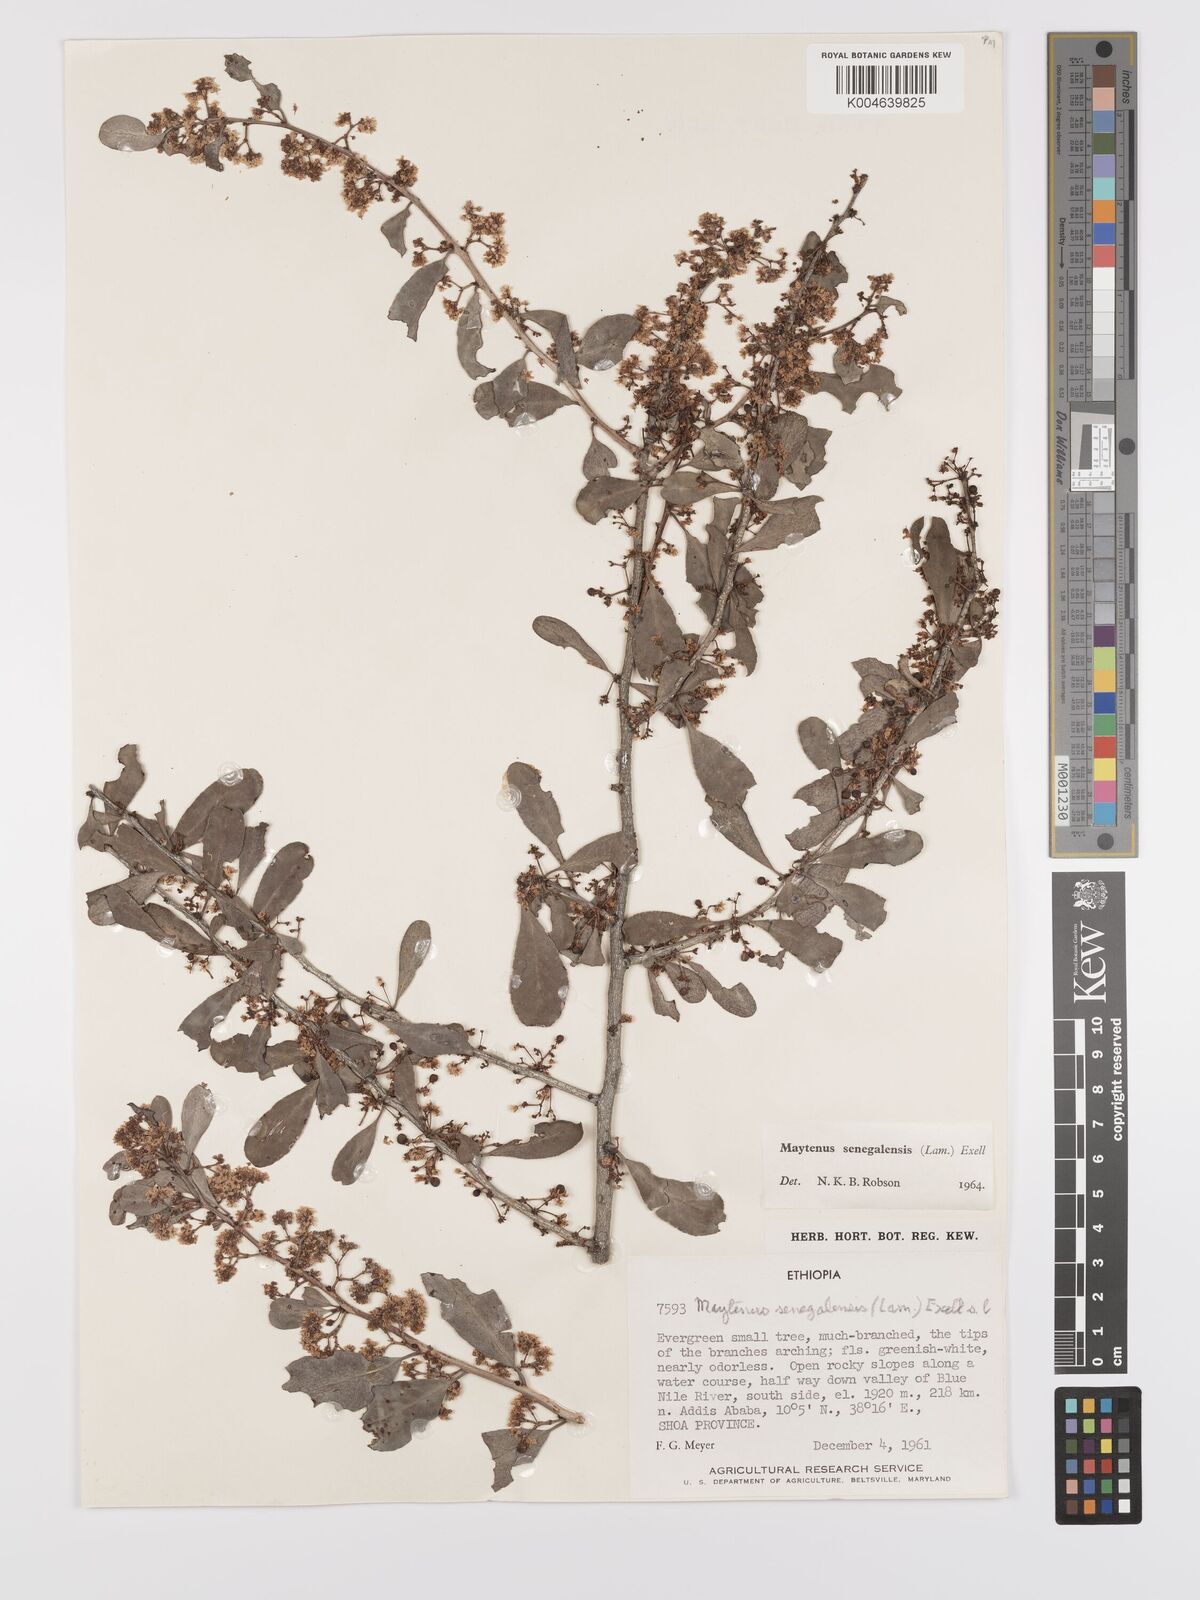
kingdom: Plantae
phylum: Tracheophyta
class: Magnoliopsida
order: Celastrales
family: Celastraceae
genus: Gymnosporia
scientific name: Gymnosporia senegalensis
